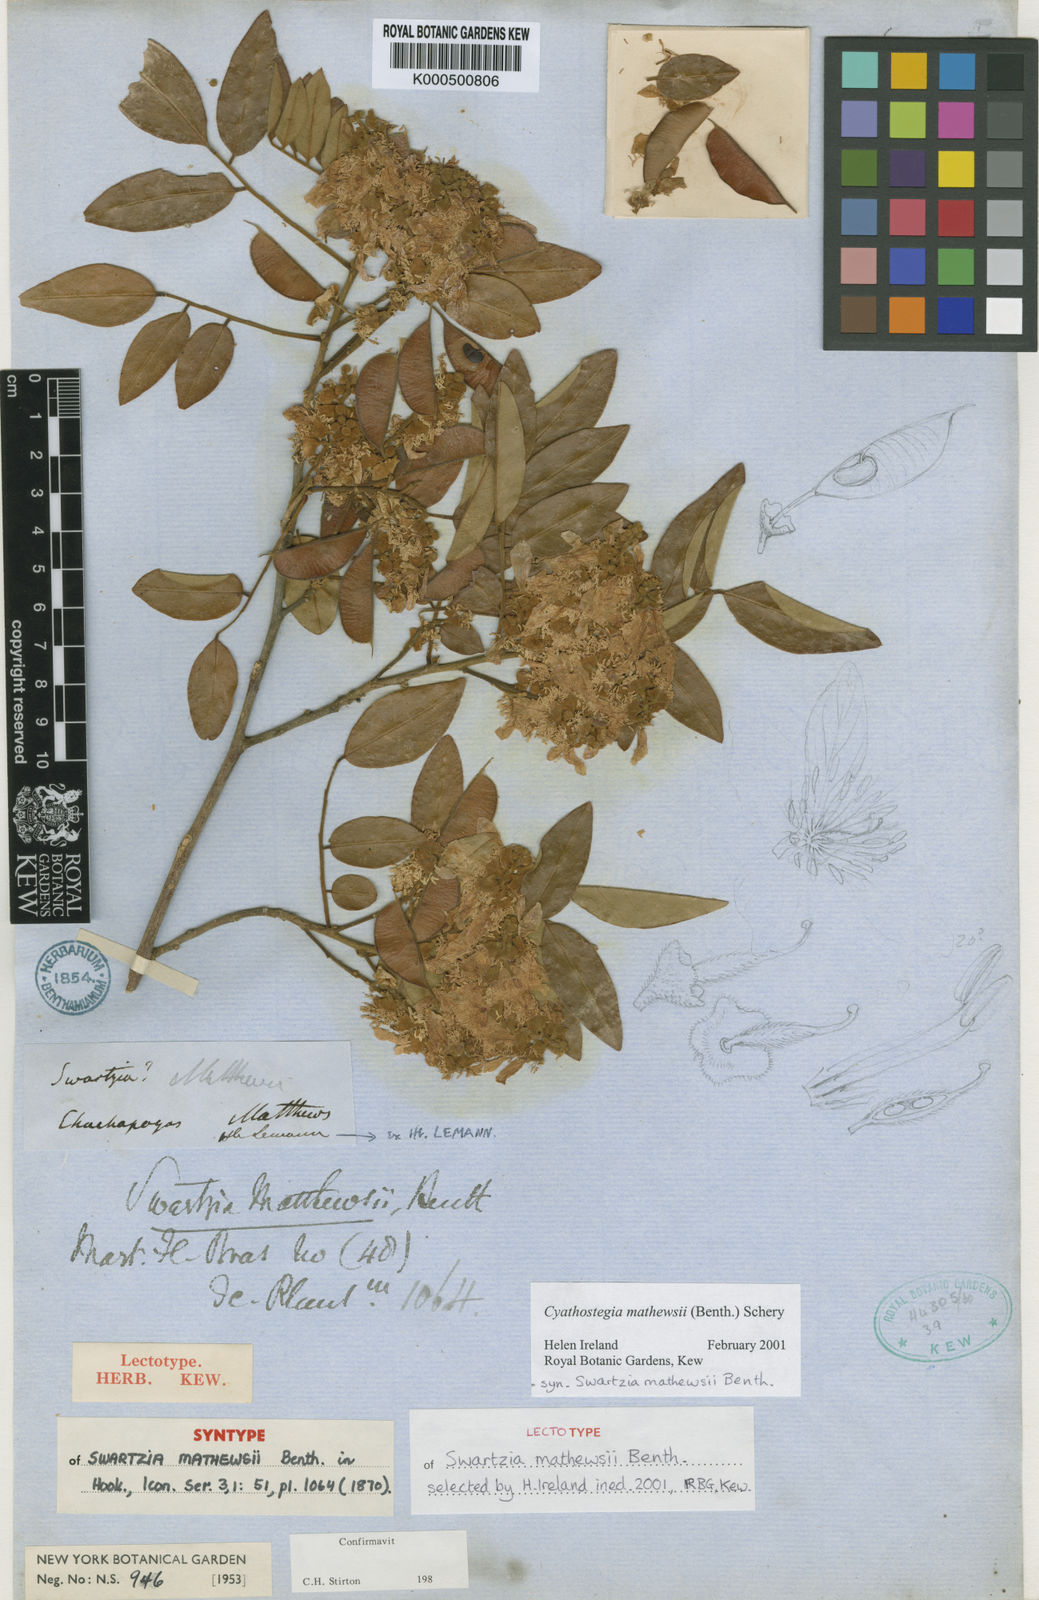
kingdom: Plantae
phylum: Tracheophyta
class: Magnoliopsida
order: Fabales
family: Fabaceae
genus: Cyathostegia
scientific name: Cyathostegia matthewsii
